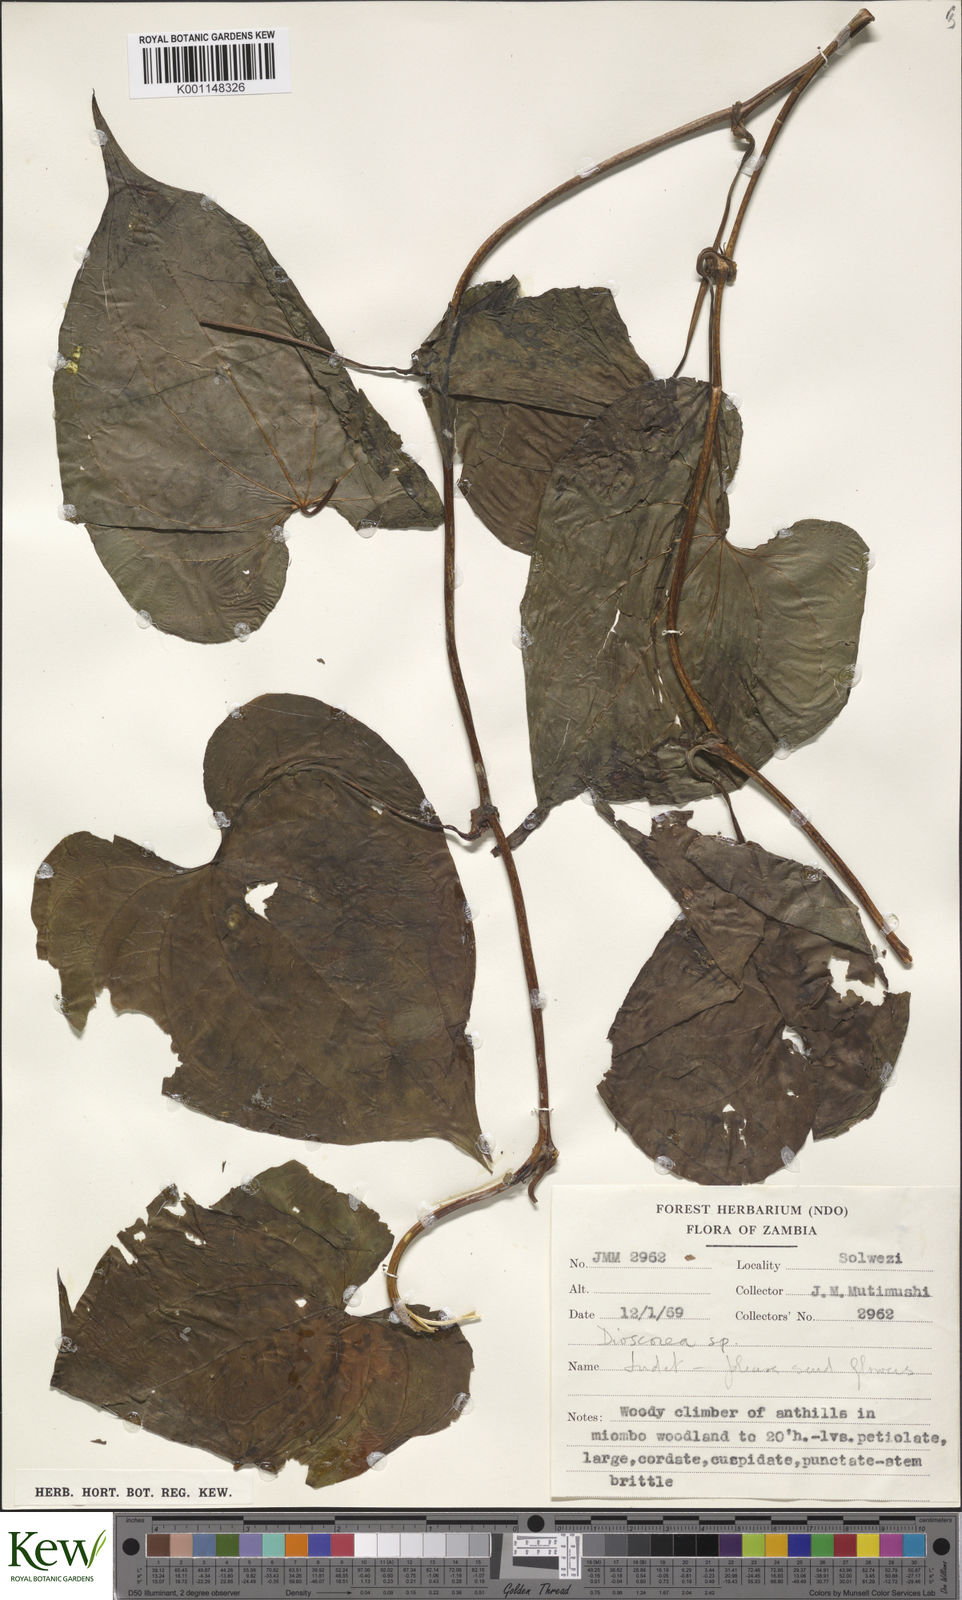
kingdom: Plantae
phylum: Tracheophyta
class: Liliopsida
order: Dioscoreales
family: Dioscoreaceae
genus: Dioscorea
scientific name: Dioscorea
